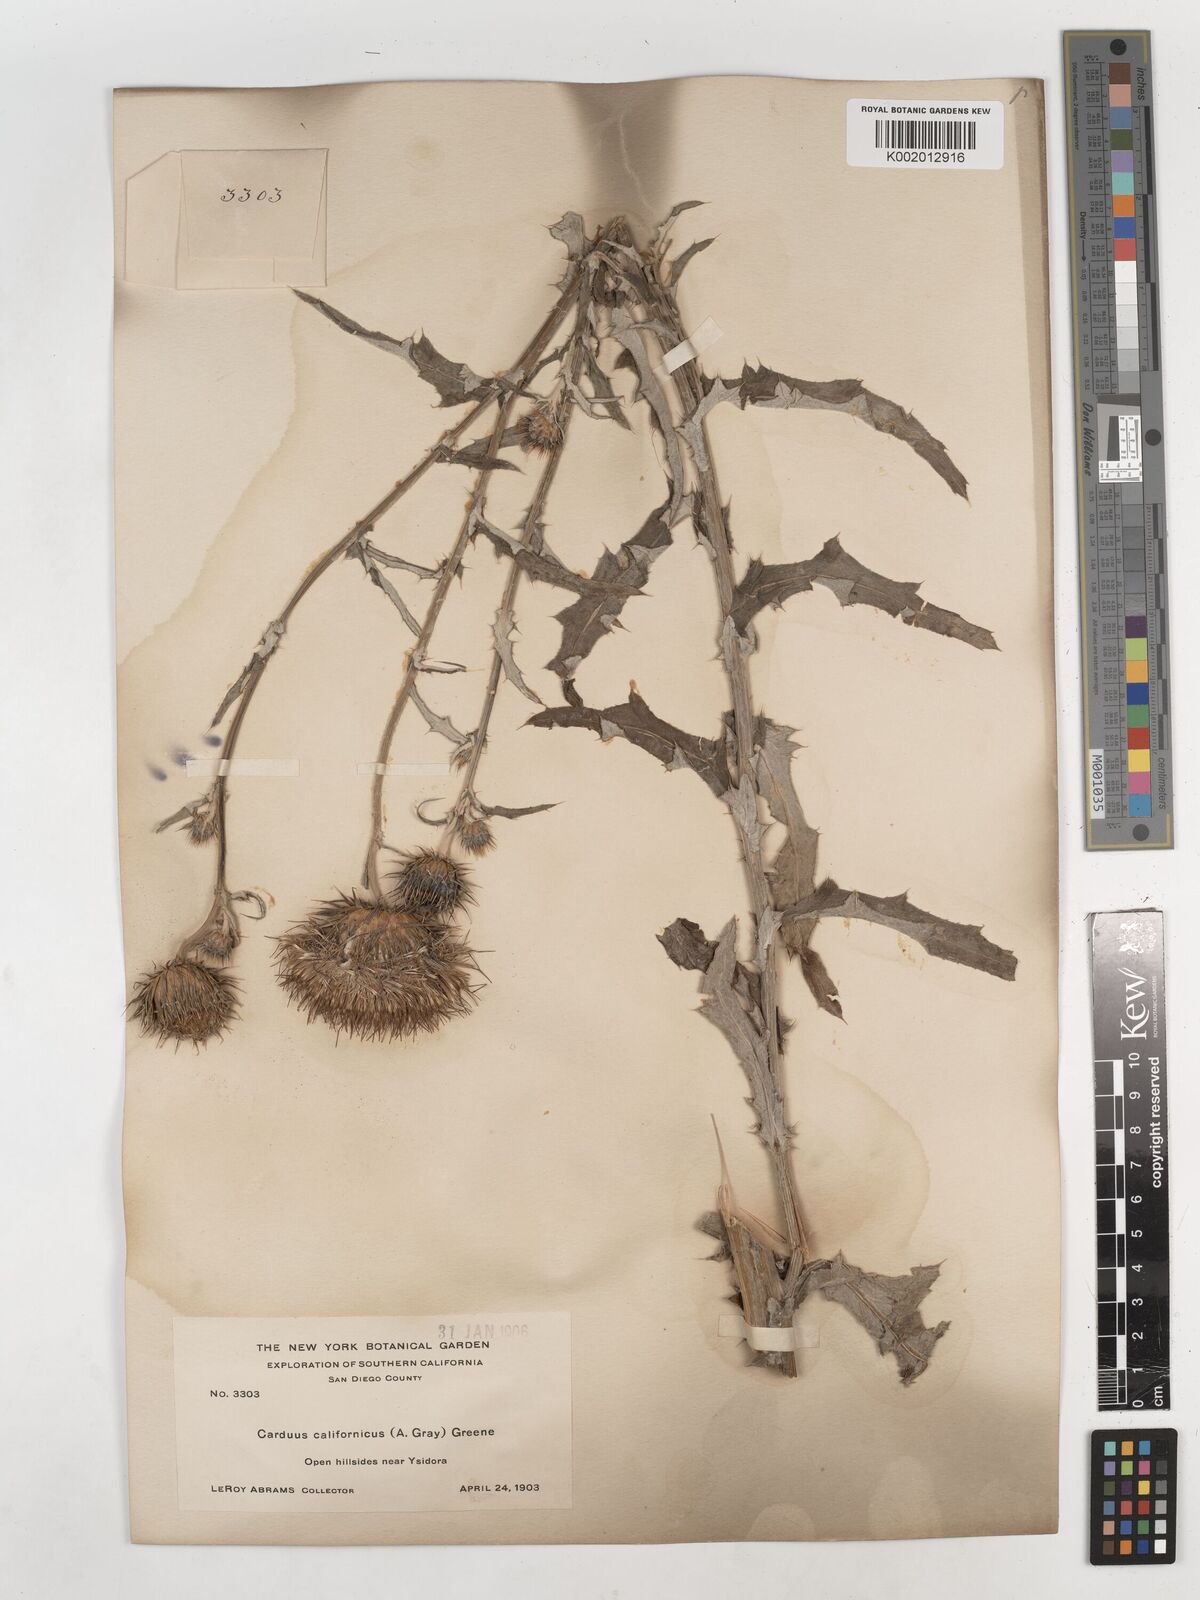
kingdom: Plantae
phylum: Tracheophyta
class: Magnoliopsida
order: Asterales
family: Asteraceae
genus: Cirsium
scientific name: Cirsium occidentale
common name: Western thistle
